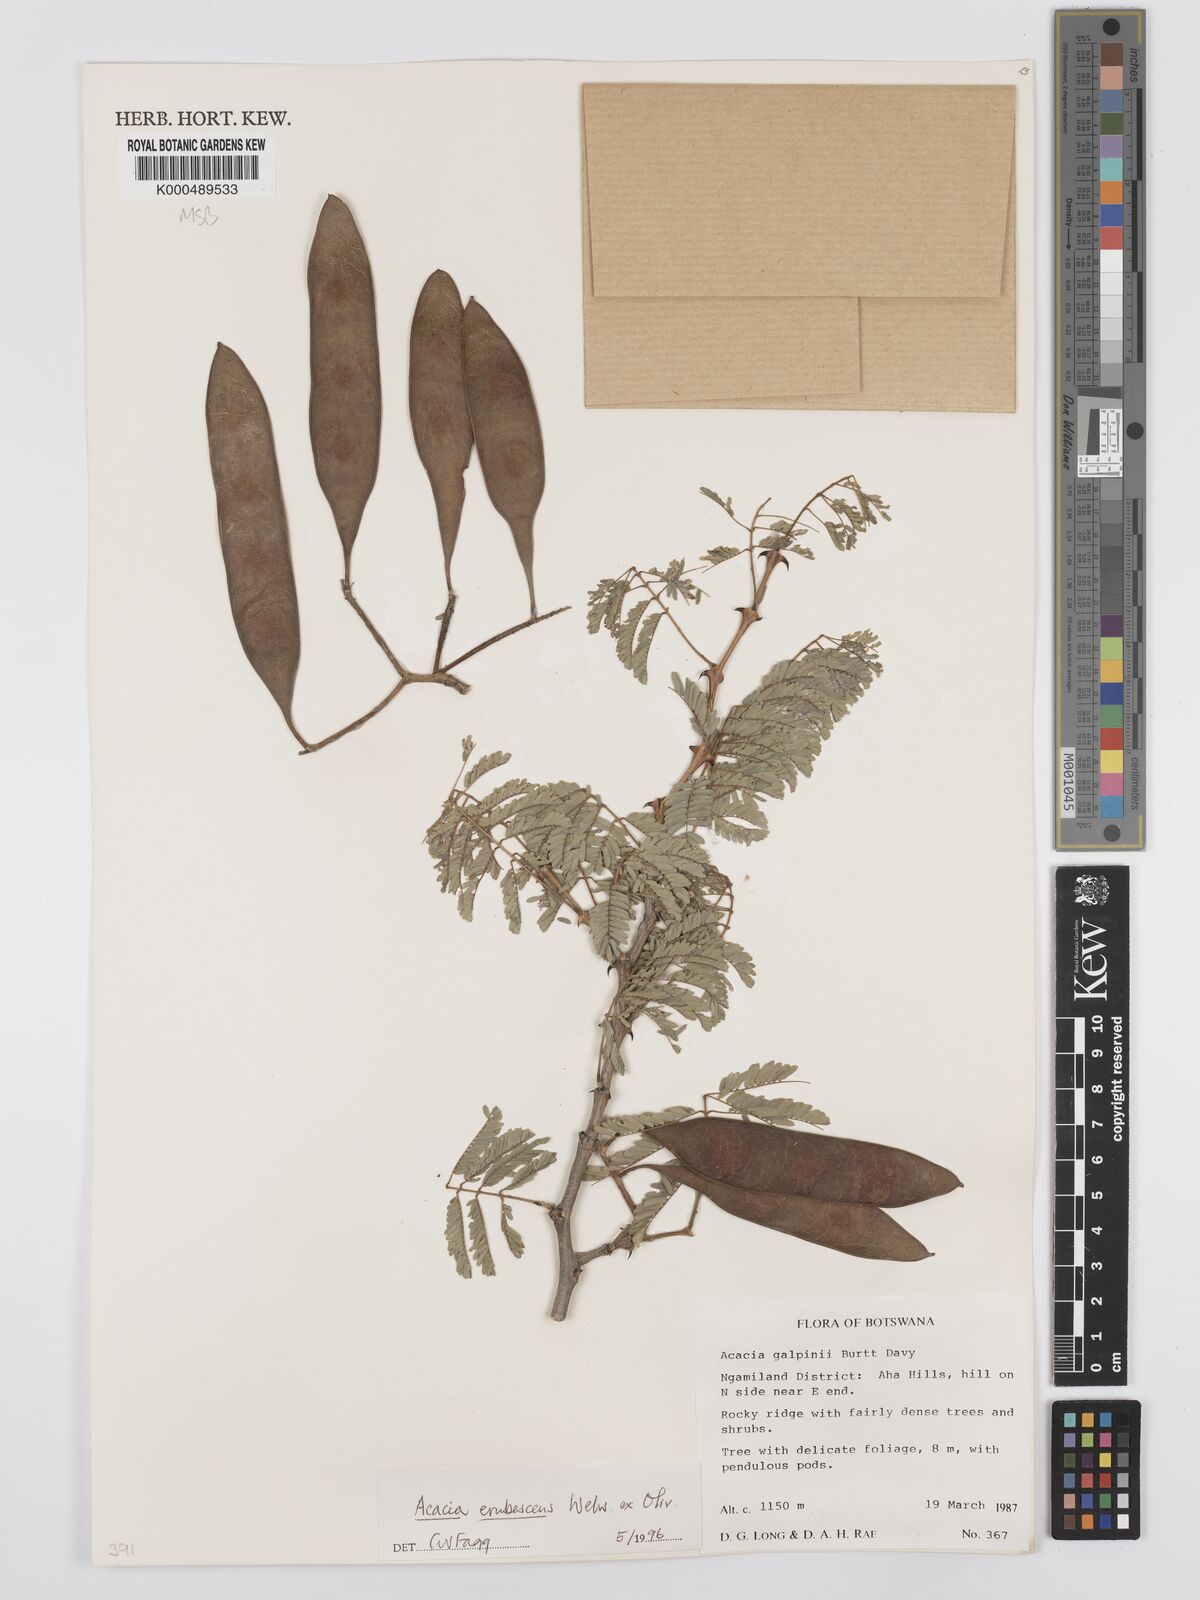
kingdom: Plantae
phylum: Tracheophyta
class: Magnoliopsida
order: Fabales
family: Fabaceae
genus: Senegalia
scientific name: Senegalia erubescens
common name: Bluethorn
